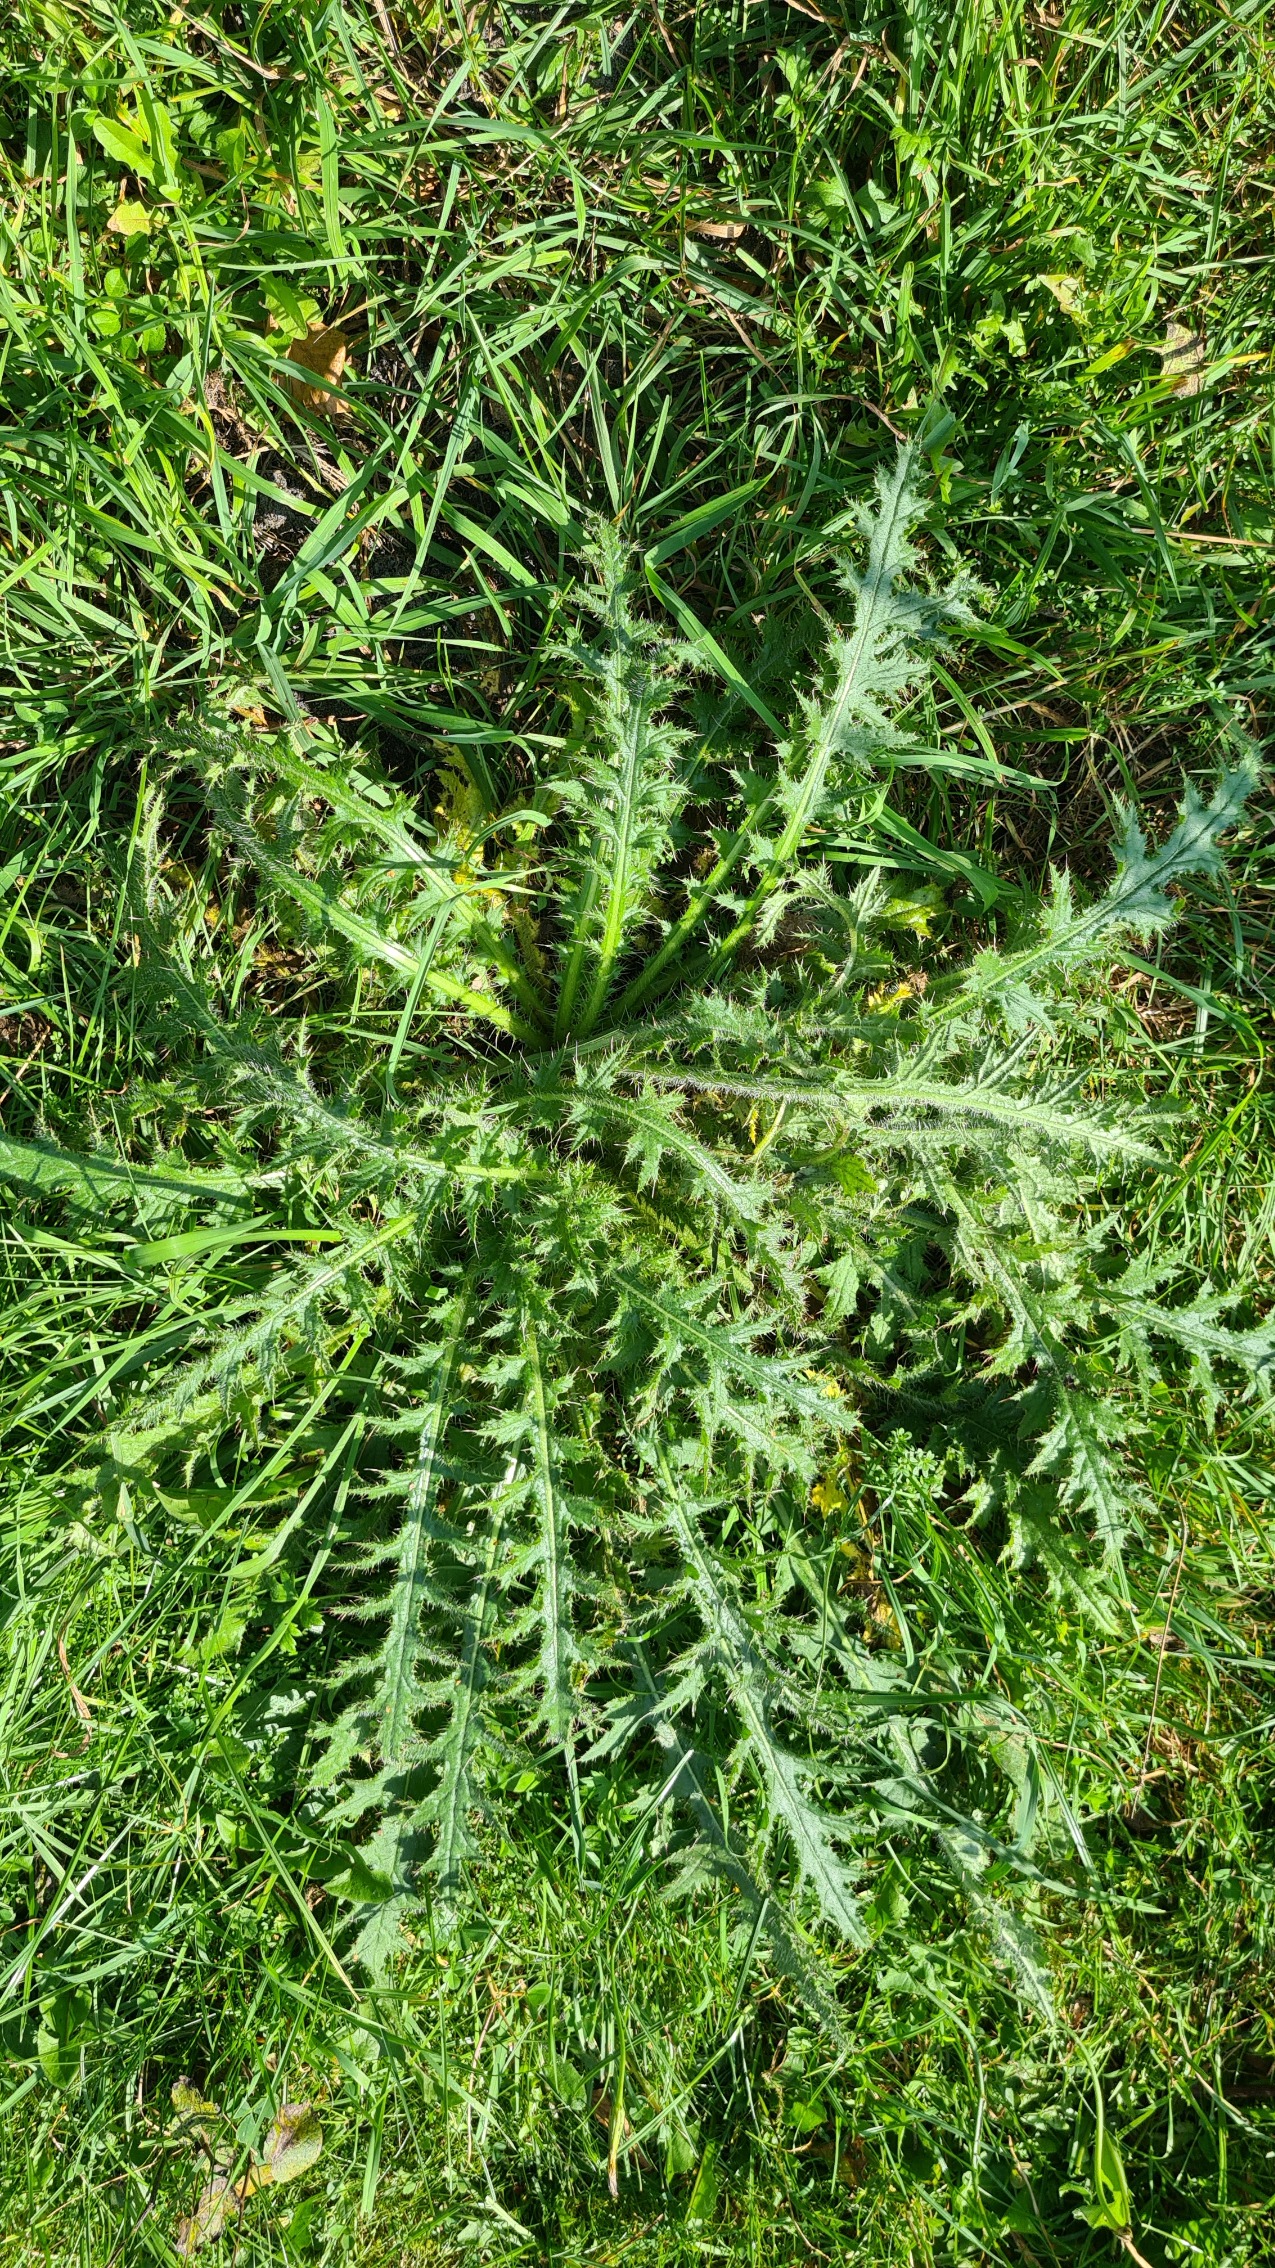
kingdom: Plantae
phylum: Tracheophyta
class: Magnoliopsida
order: Asterales
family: Asteraceae
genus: Cirsium
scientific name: Cirsium palustre
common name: Kær-tidsel
